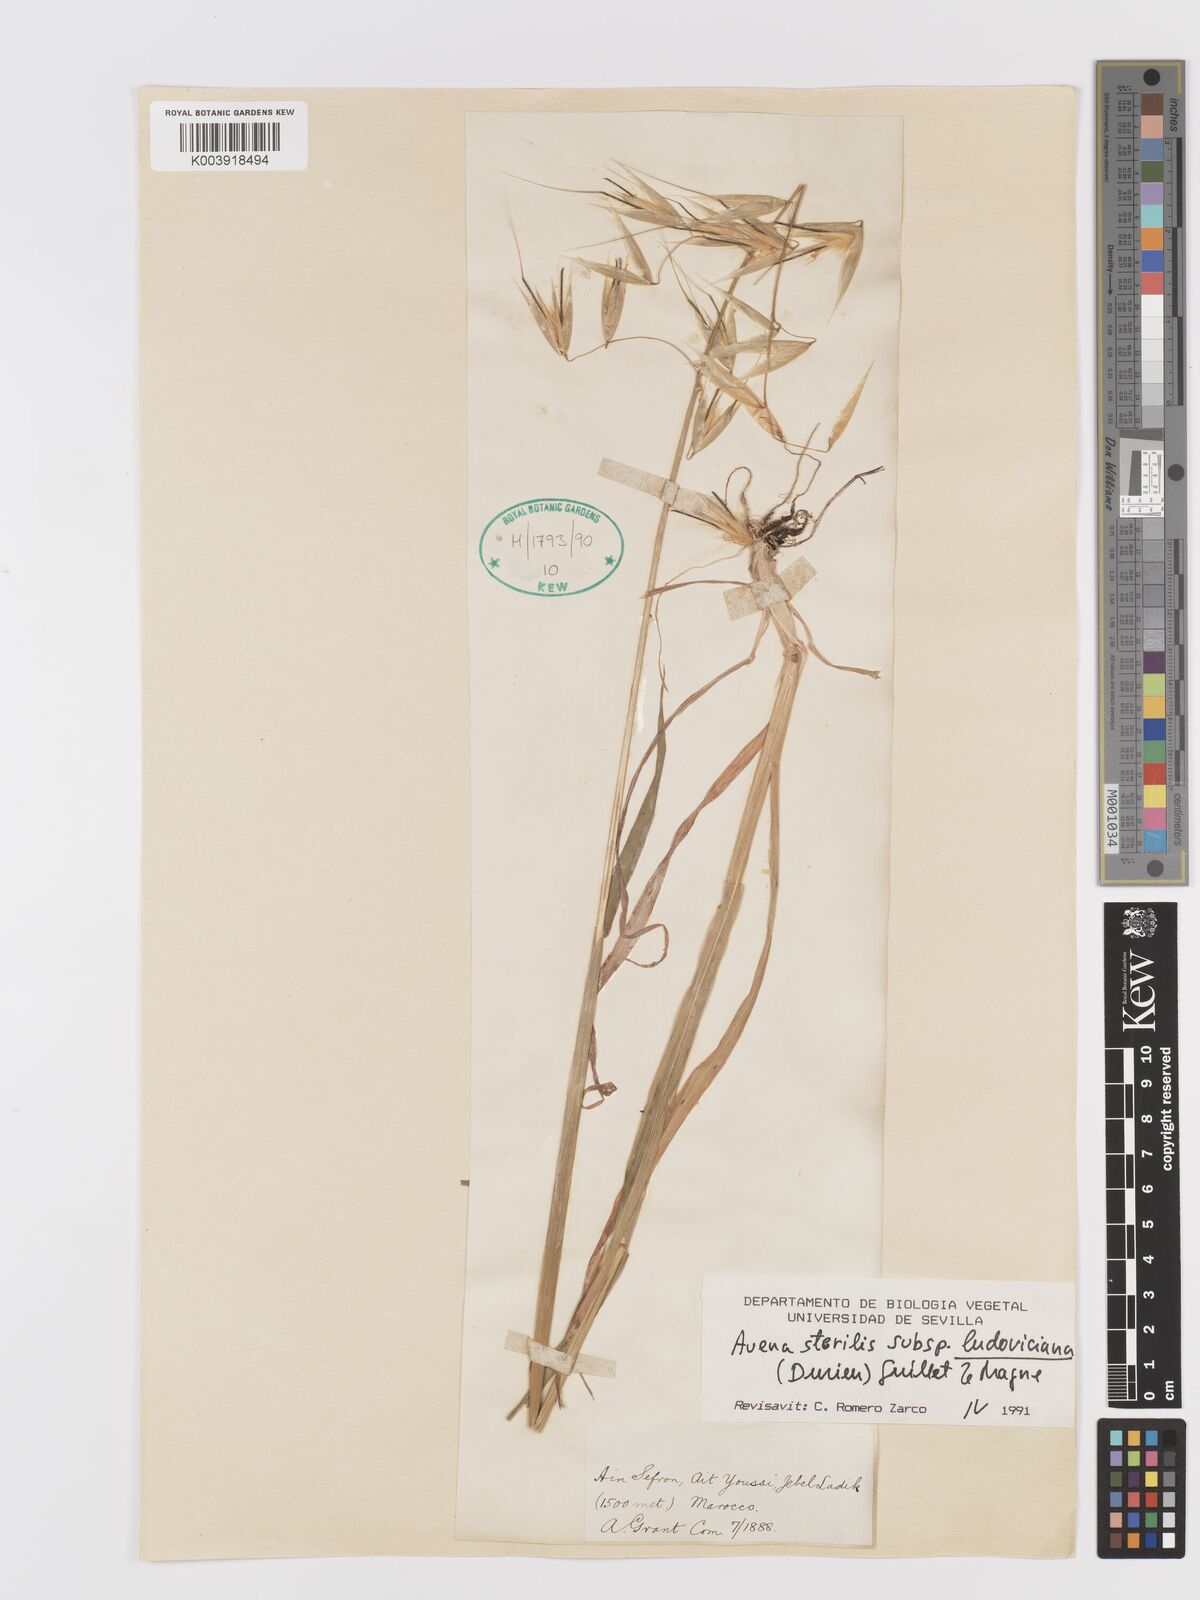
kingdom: Plantae
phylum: Tracheophyta
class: Liliopsida
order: Poales
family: Poaceae
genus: Avena
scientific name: Avena sterilis
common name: Animated oat
